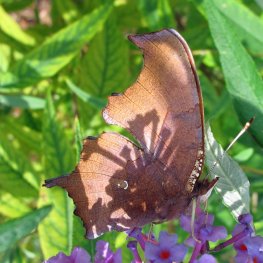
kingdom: Animalia
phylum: Arthropoda
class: Insecta
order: Lepidoptera
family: Nymphalidae
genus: Polygonia
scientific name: Polygonia interrogationis
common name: Question Mark
